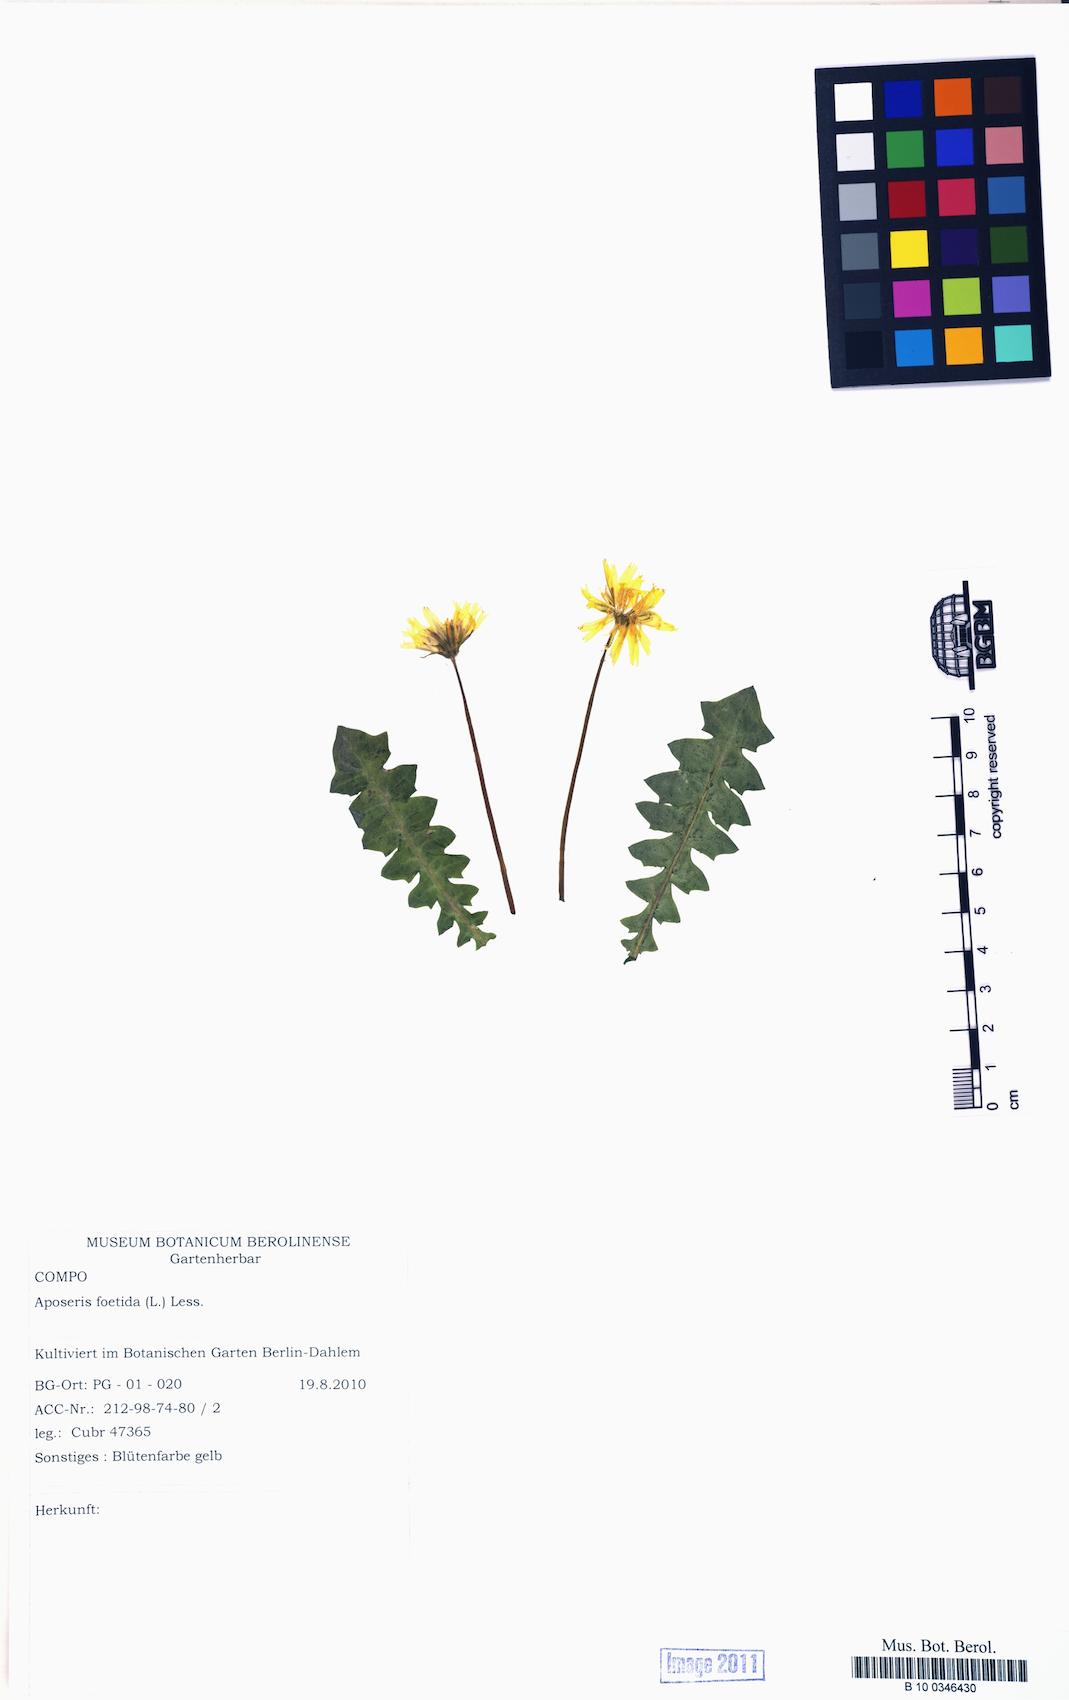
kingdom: Plantae
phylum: Tracheophyta
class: Magnoliopsida
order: Asterales
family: Asteraceae
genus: Aposeris
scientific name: Aposeris foetida
